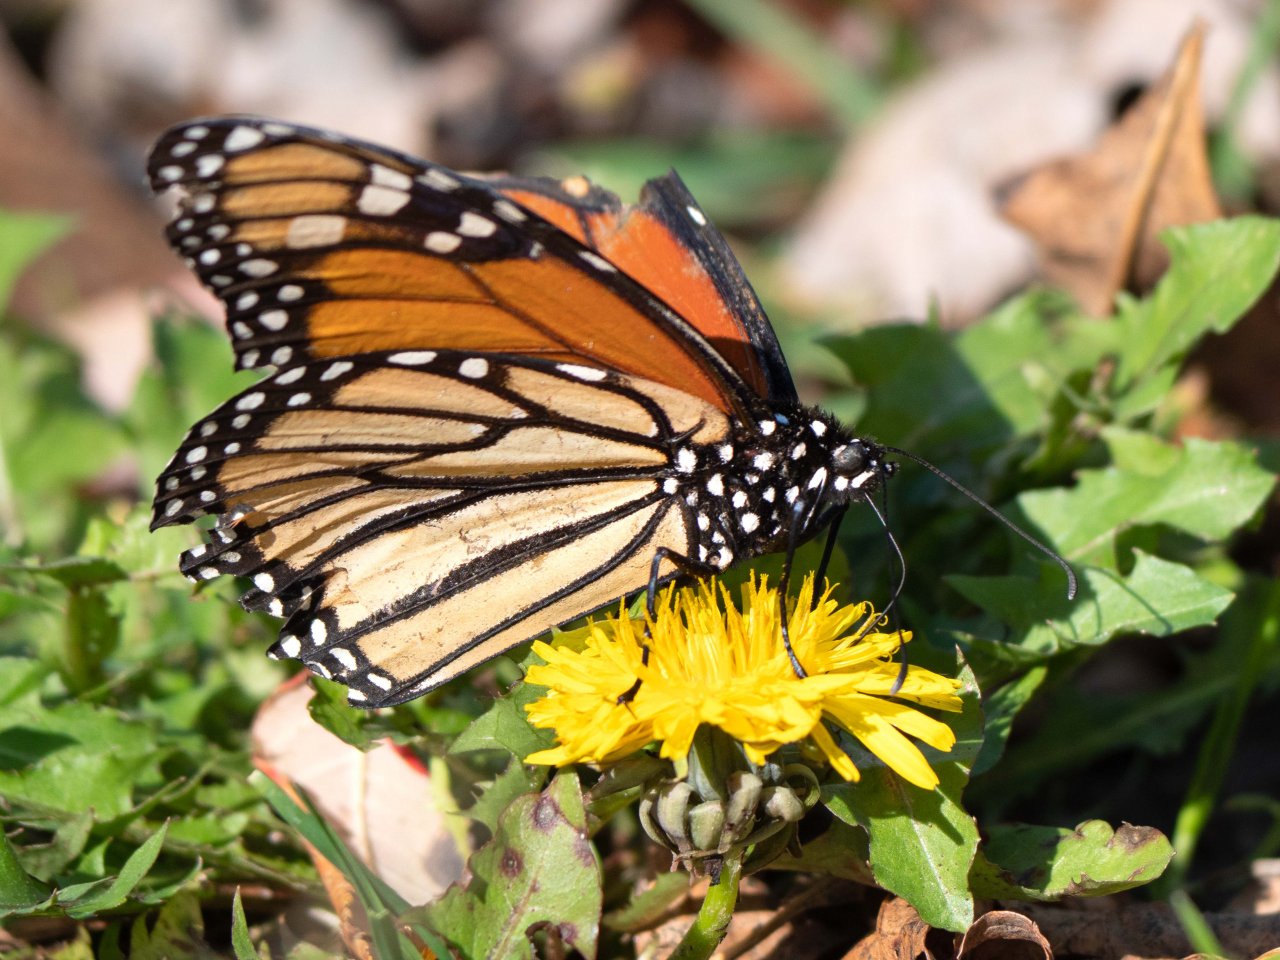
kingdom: Animalia
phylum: Arthropoda
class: Insecta
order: Lepidoptera
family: Nymphalidae
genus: Danaus
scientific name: Danaus plexippus
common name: Monarch
